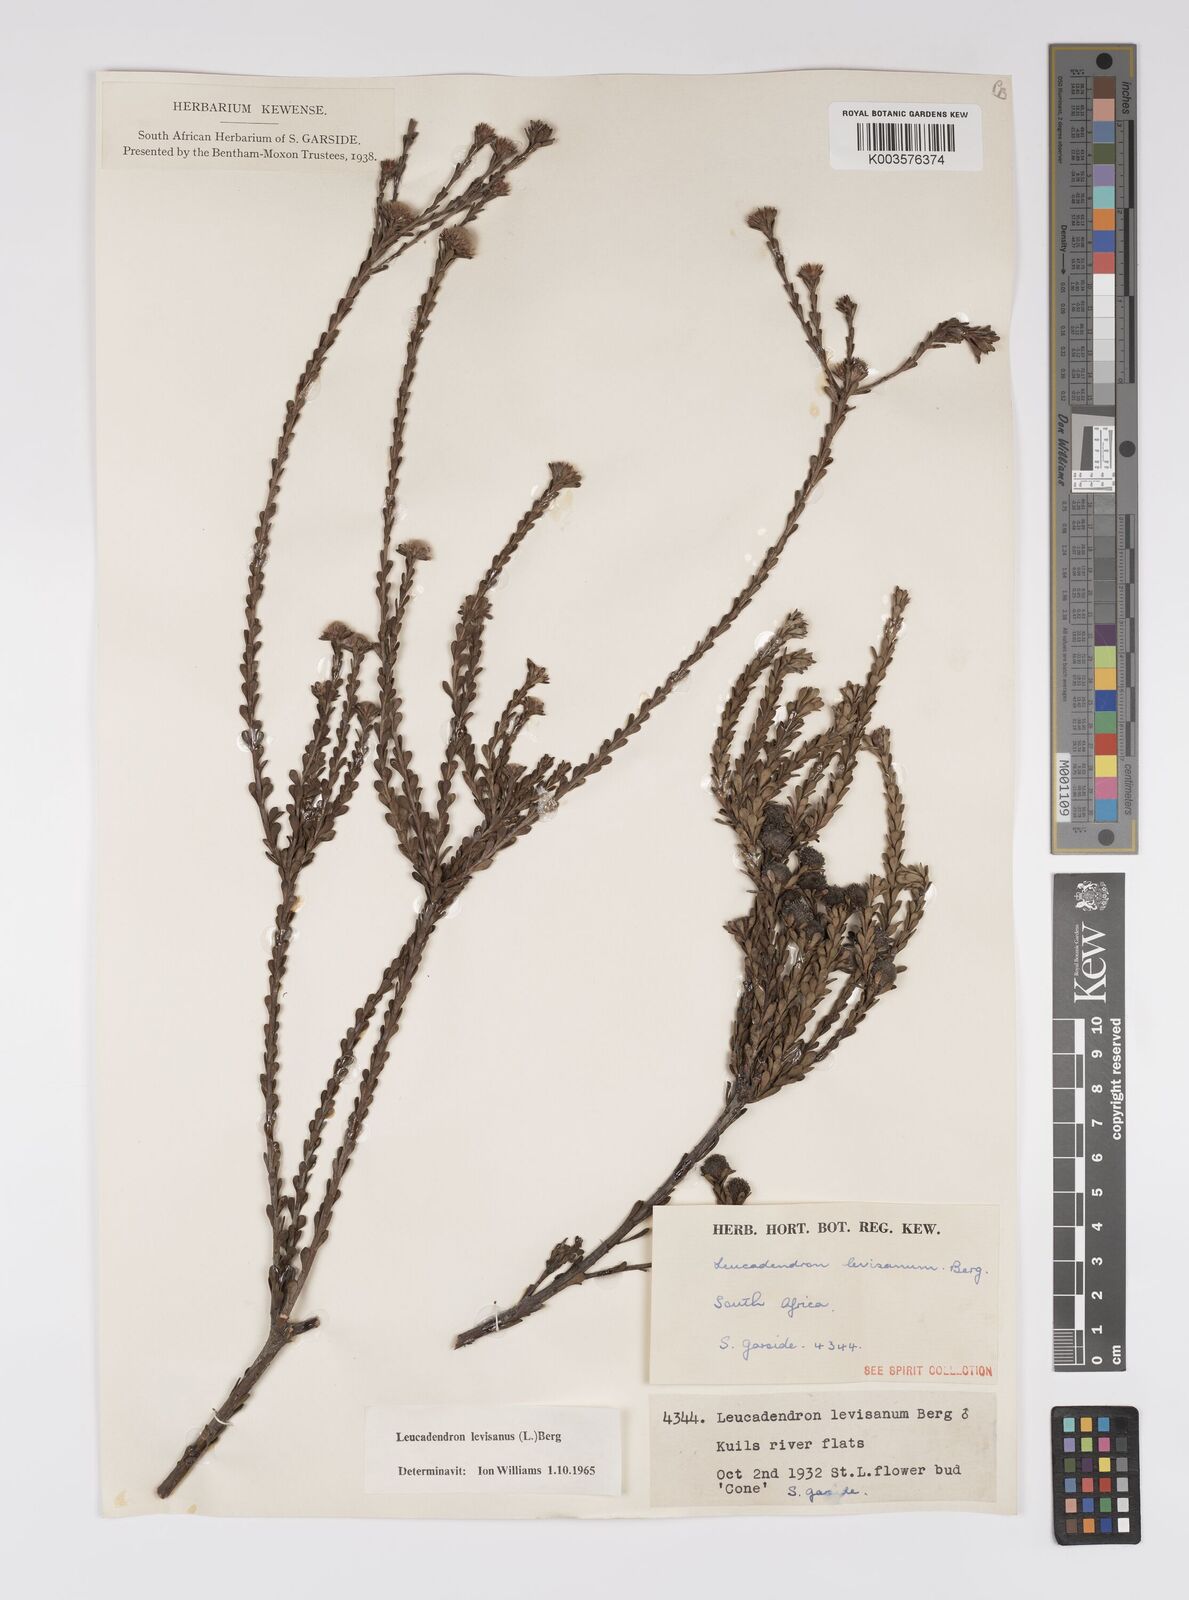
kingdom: Plantae
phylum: Tracheophyta
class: Magnoliopsida
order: Proteales
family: Proteaceae
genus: Leucadendron
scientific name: Leucadendron levisanus
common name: Cape flats conebush
